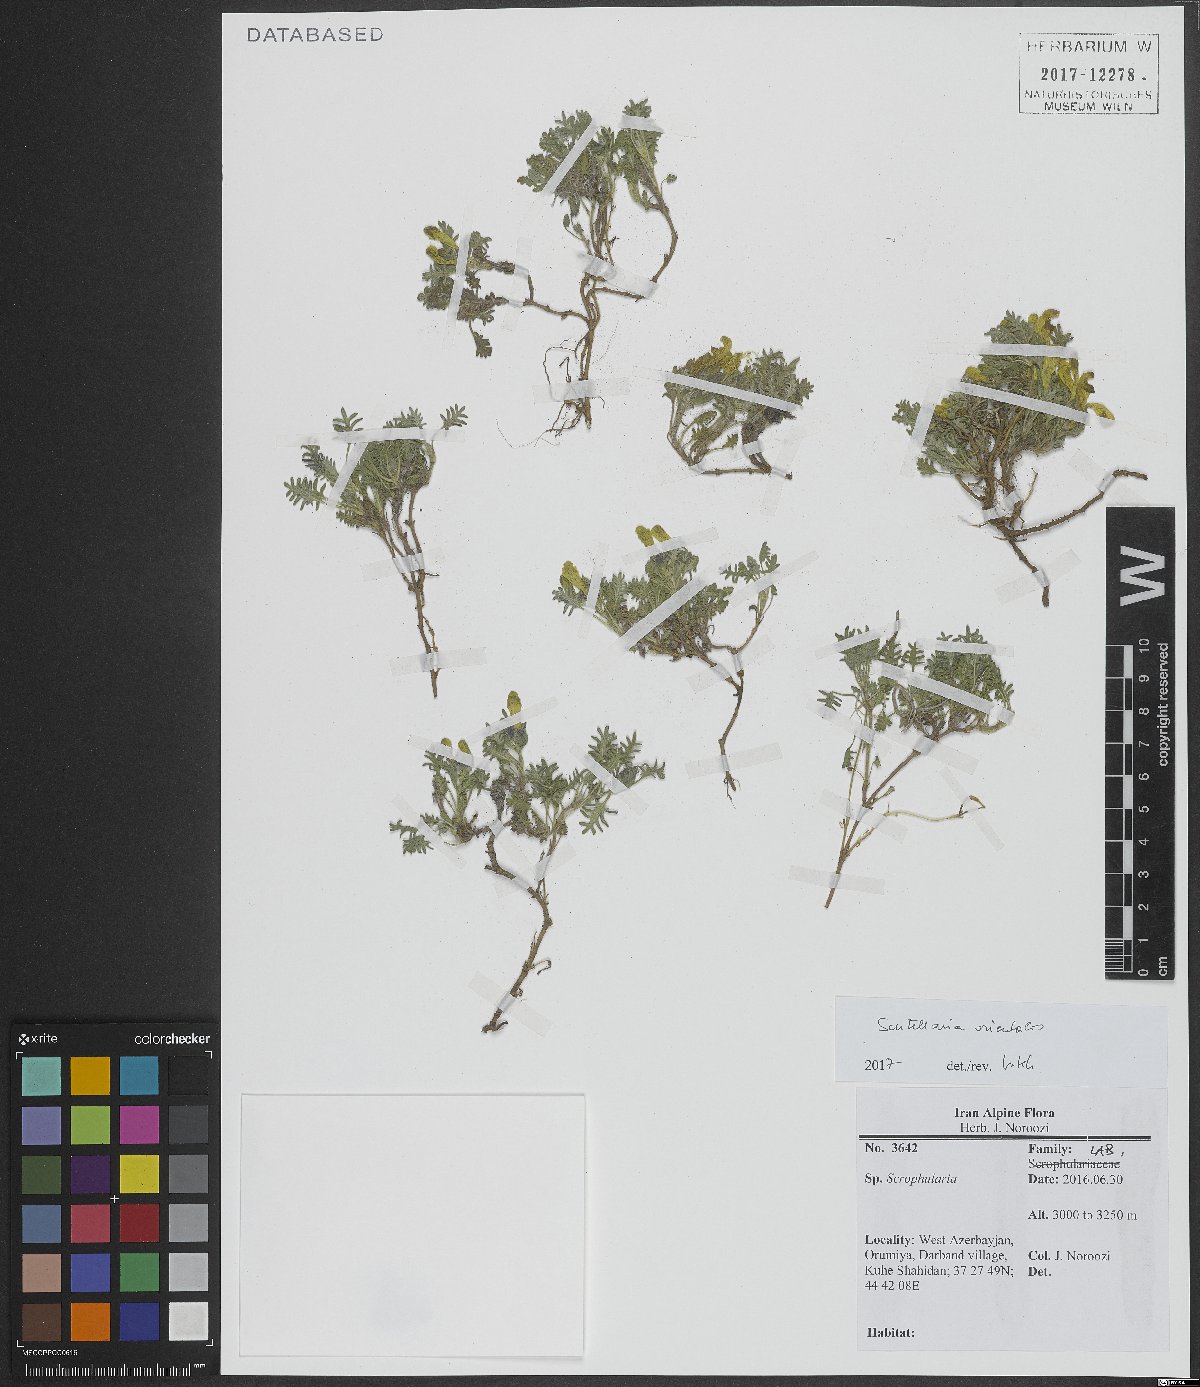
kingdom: Plantae
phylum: Tracheophyta
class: Magnoliopsida
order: Lamiales
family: Lamiaceae
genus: Scutellaria
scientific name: Scutellaria orientalis
